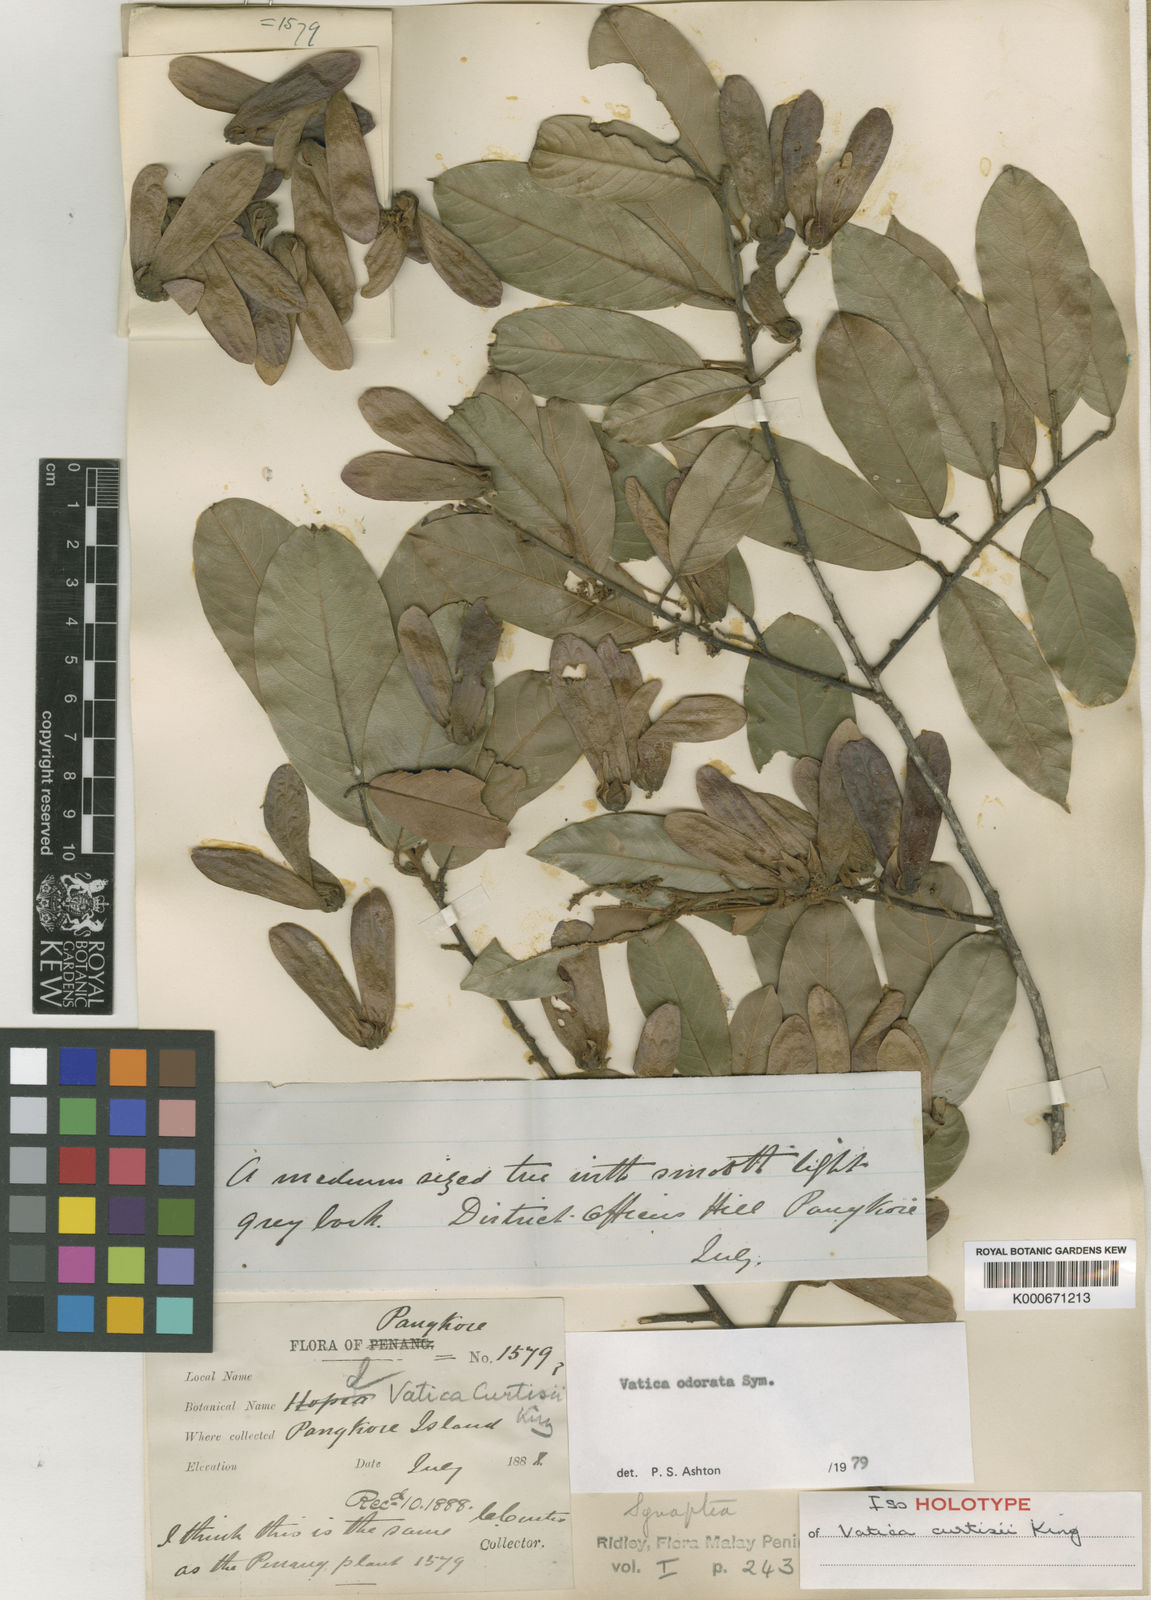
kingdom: Plantae
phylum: Tracheophyta
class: Magnoliopsida
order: Malvales
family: Dipterocarpaceae
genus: Vatica
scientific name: Vatica odorata
